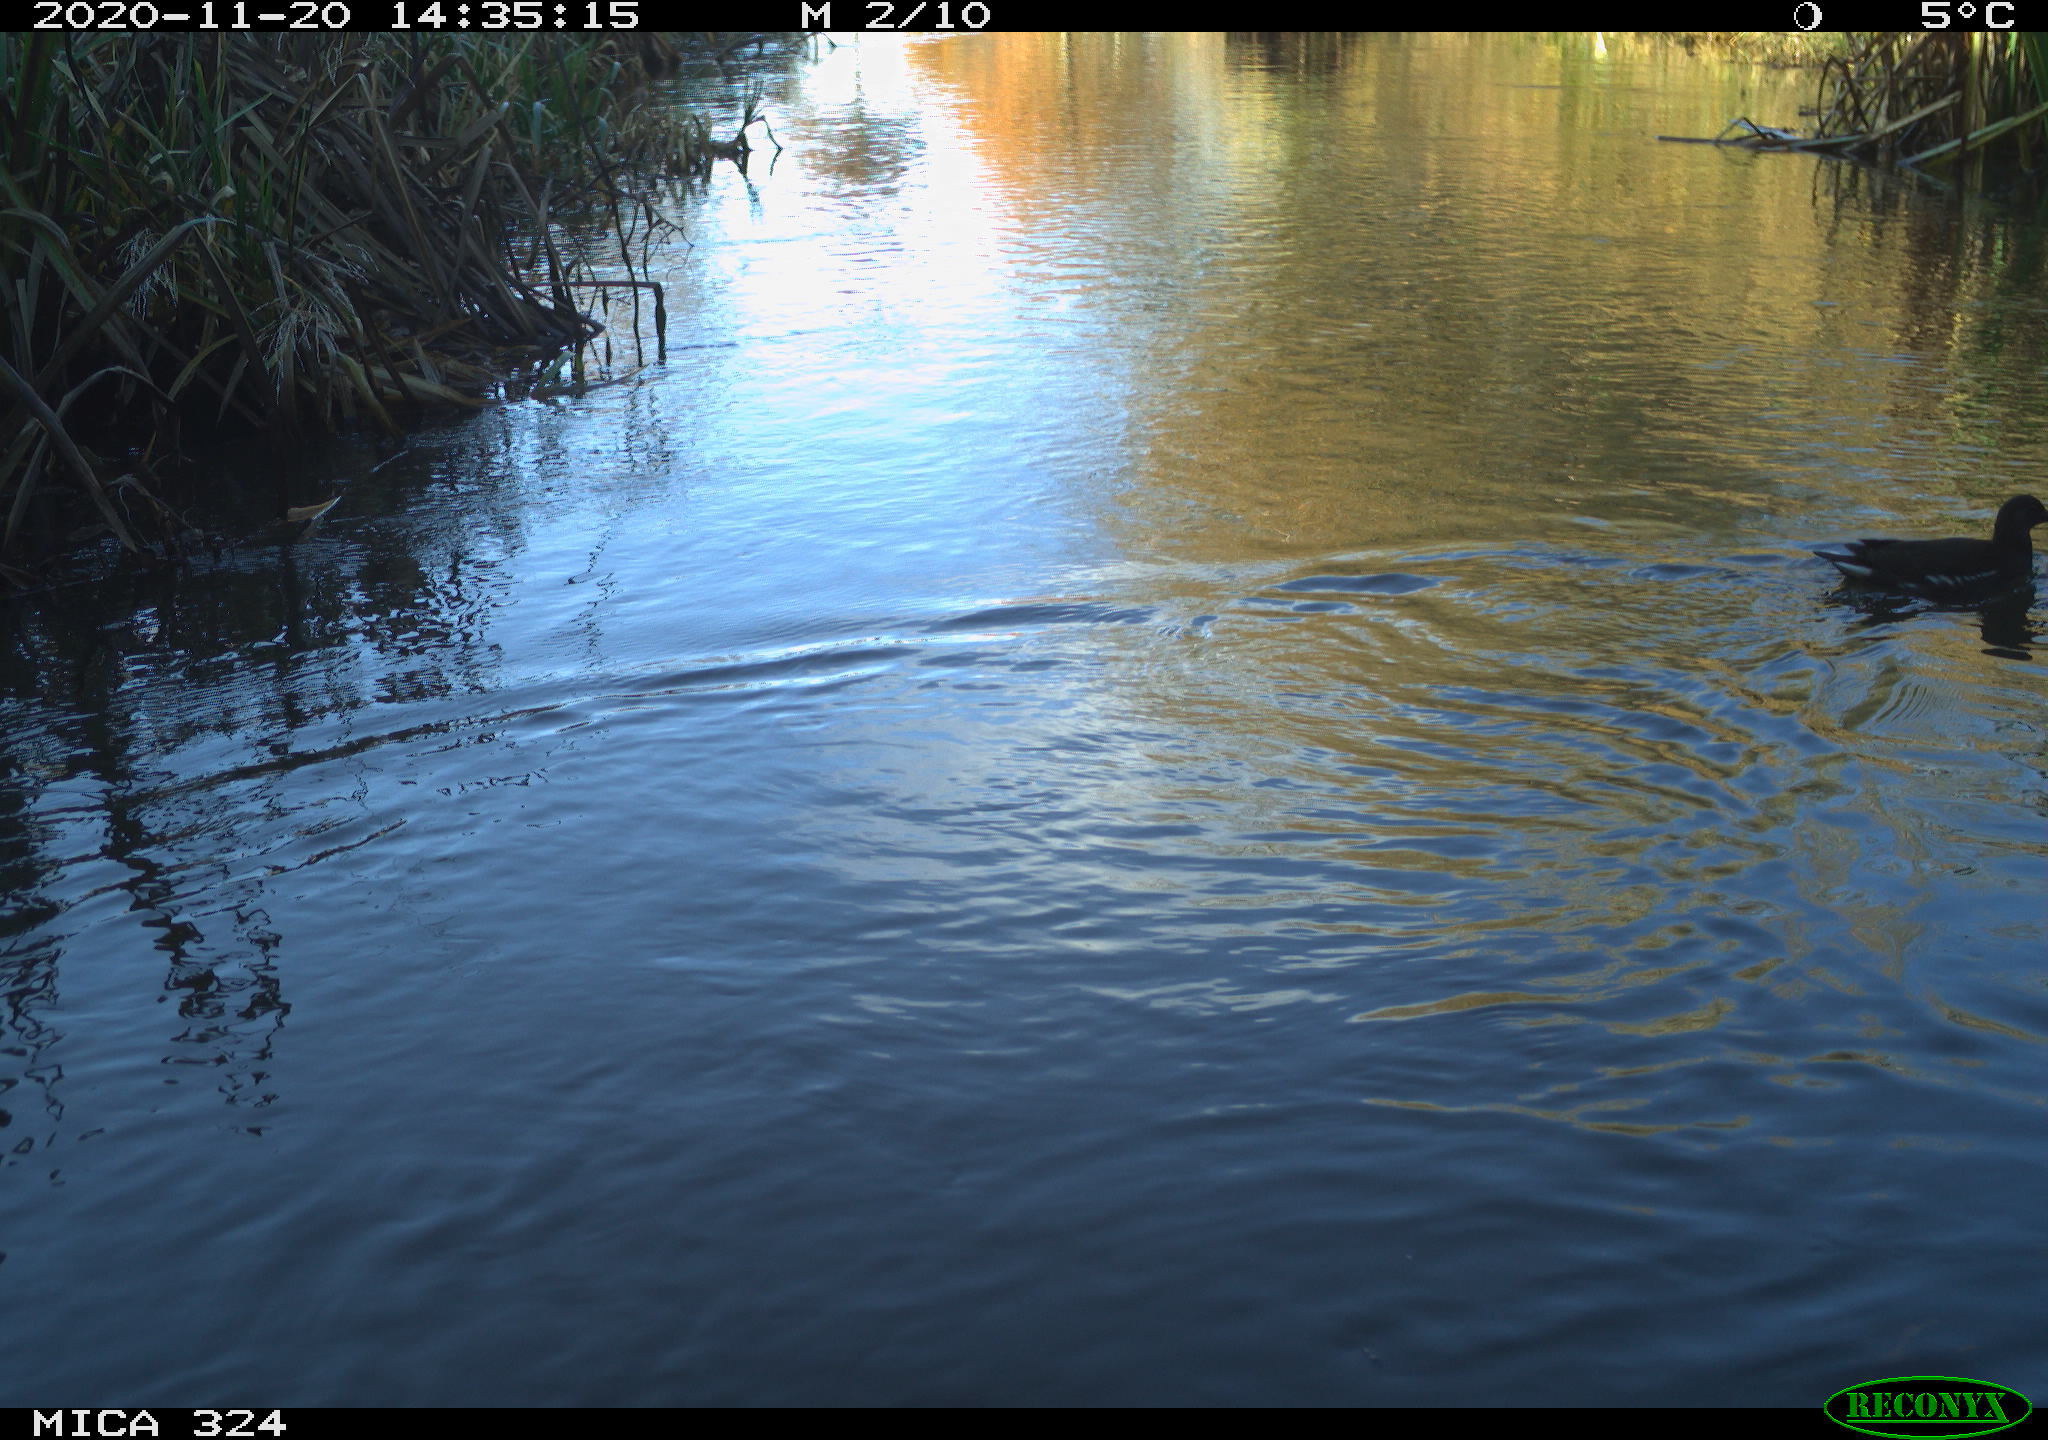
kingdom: Animalia
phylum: Chordata
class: Aves
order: Gruiformes
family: Rallidae
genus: Gallinula
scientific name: Gallinula chloropus
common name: Common moorhen
